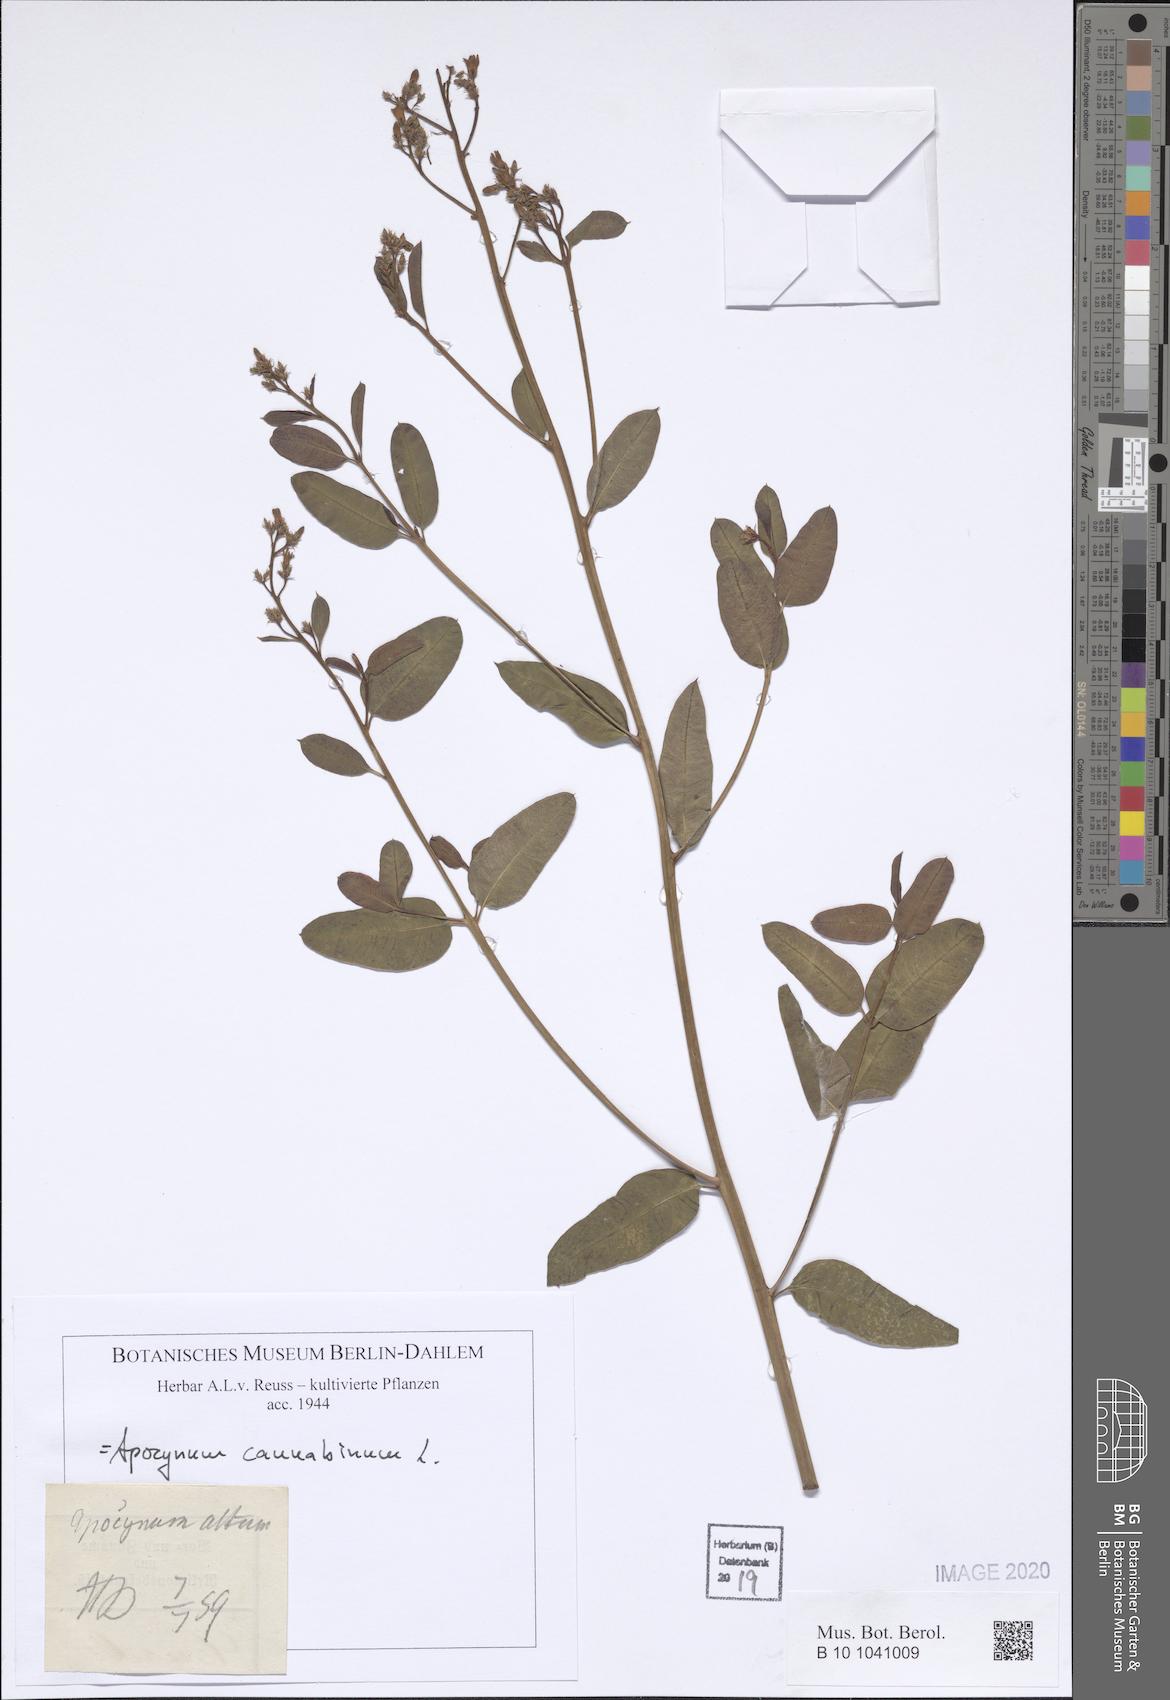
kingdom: Plantae
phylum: Tracheophyta
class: Magnoliopsida
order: Gentianales
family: Apocynaceae
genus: Apocynum
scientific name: Apocynum cannabinum
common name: Hemp dogbane
